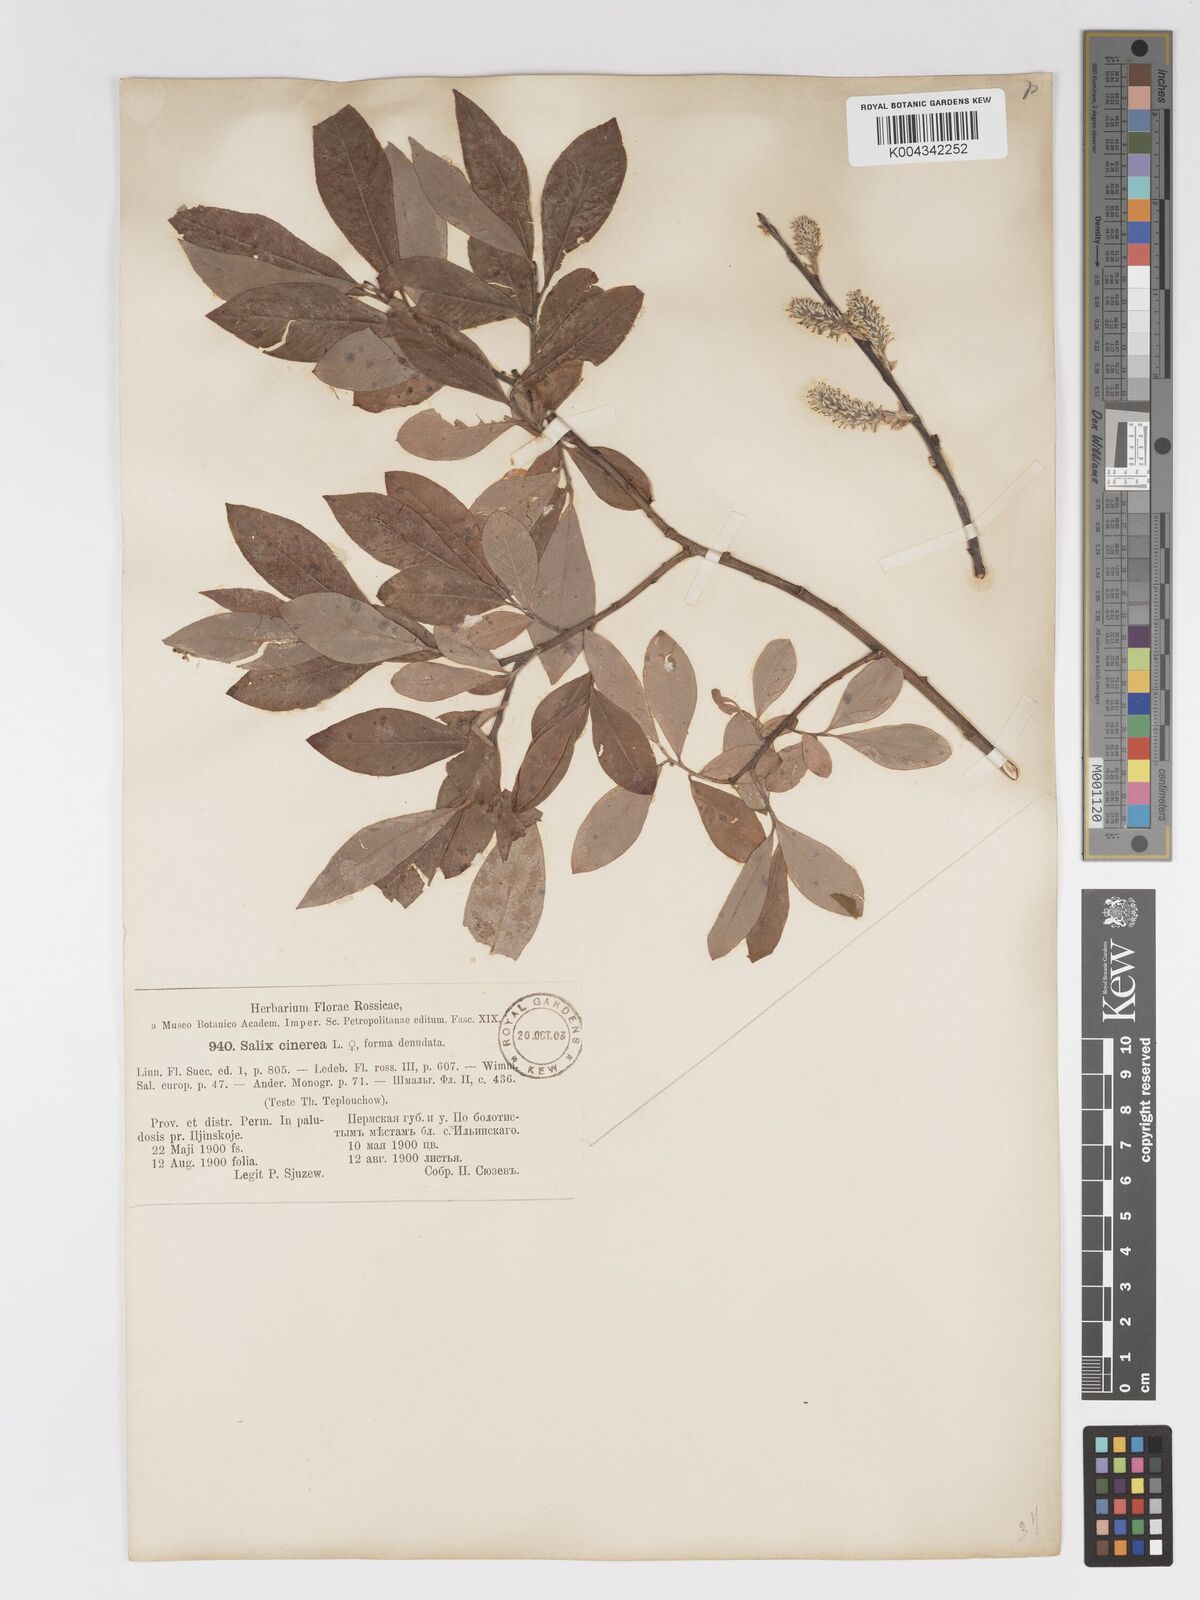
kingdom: Plantae
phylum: Tracheophyta
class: Magnoliopsida
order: Malpighiales
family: Salicaceae
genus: Salix
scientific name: Salix
